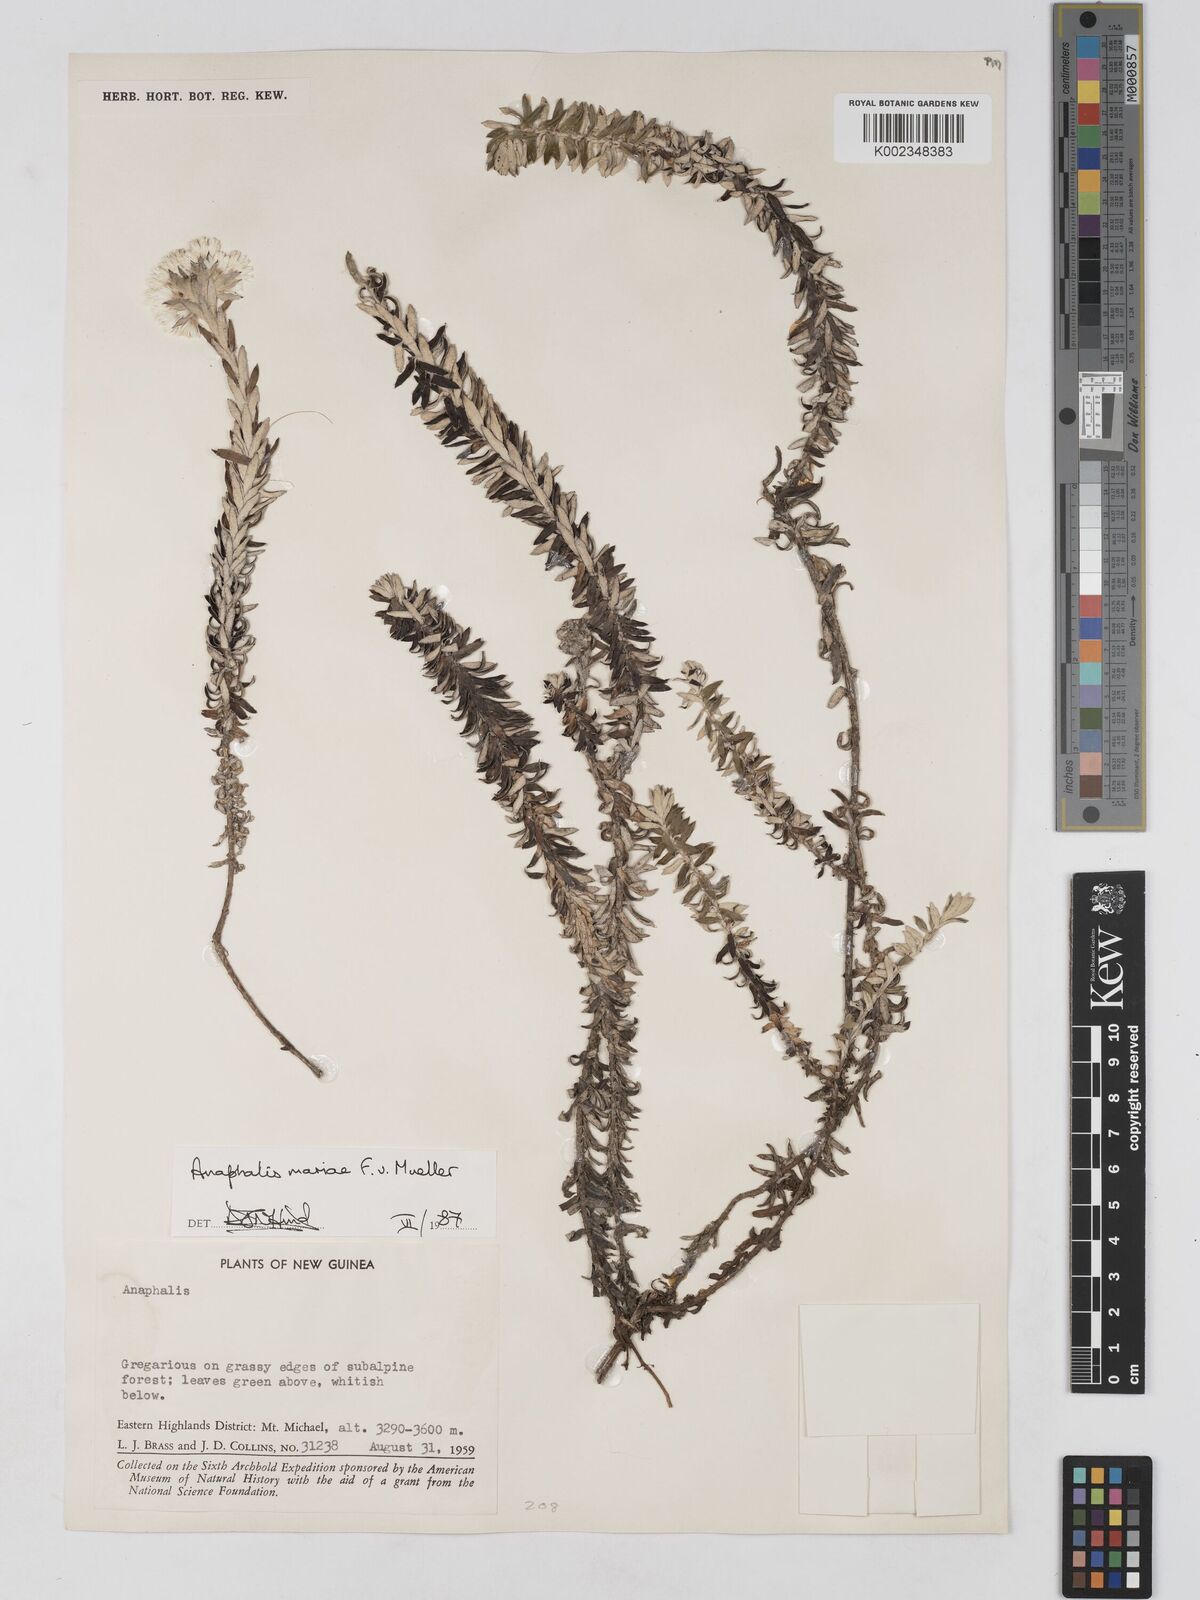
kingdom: Plantae
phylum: Tracheophyta
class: Magnoliopsida
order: Asterales
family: Asteraceae
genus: Anaphalioides
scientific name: Anaphalioides mariae
